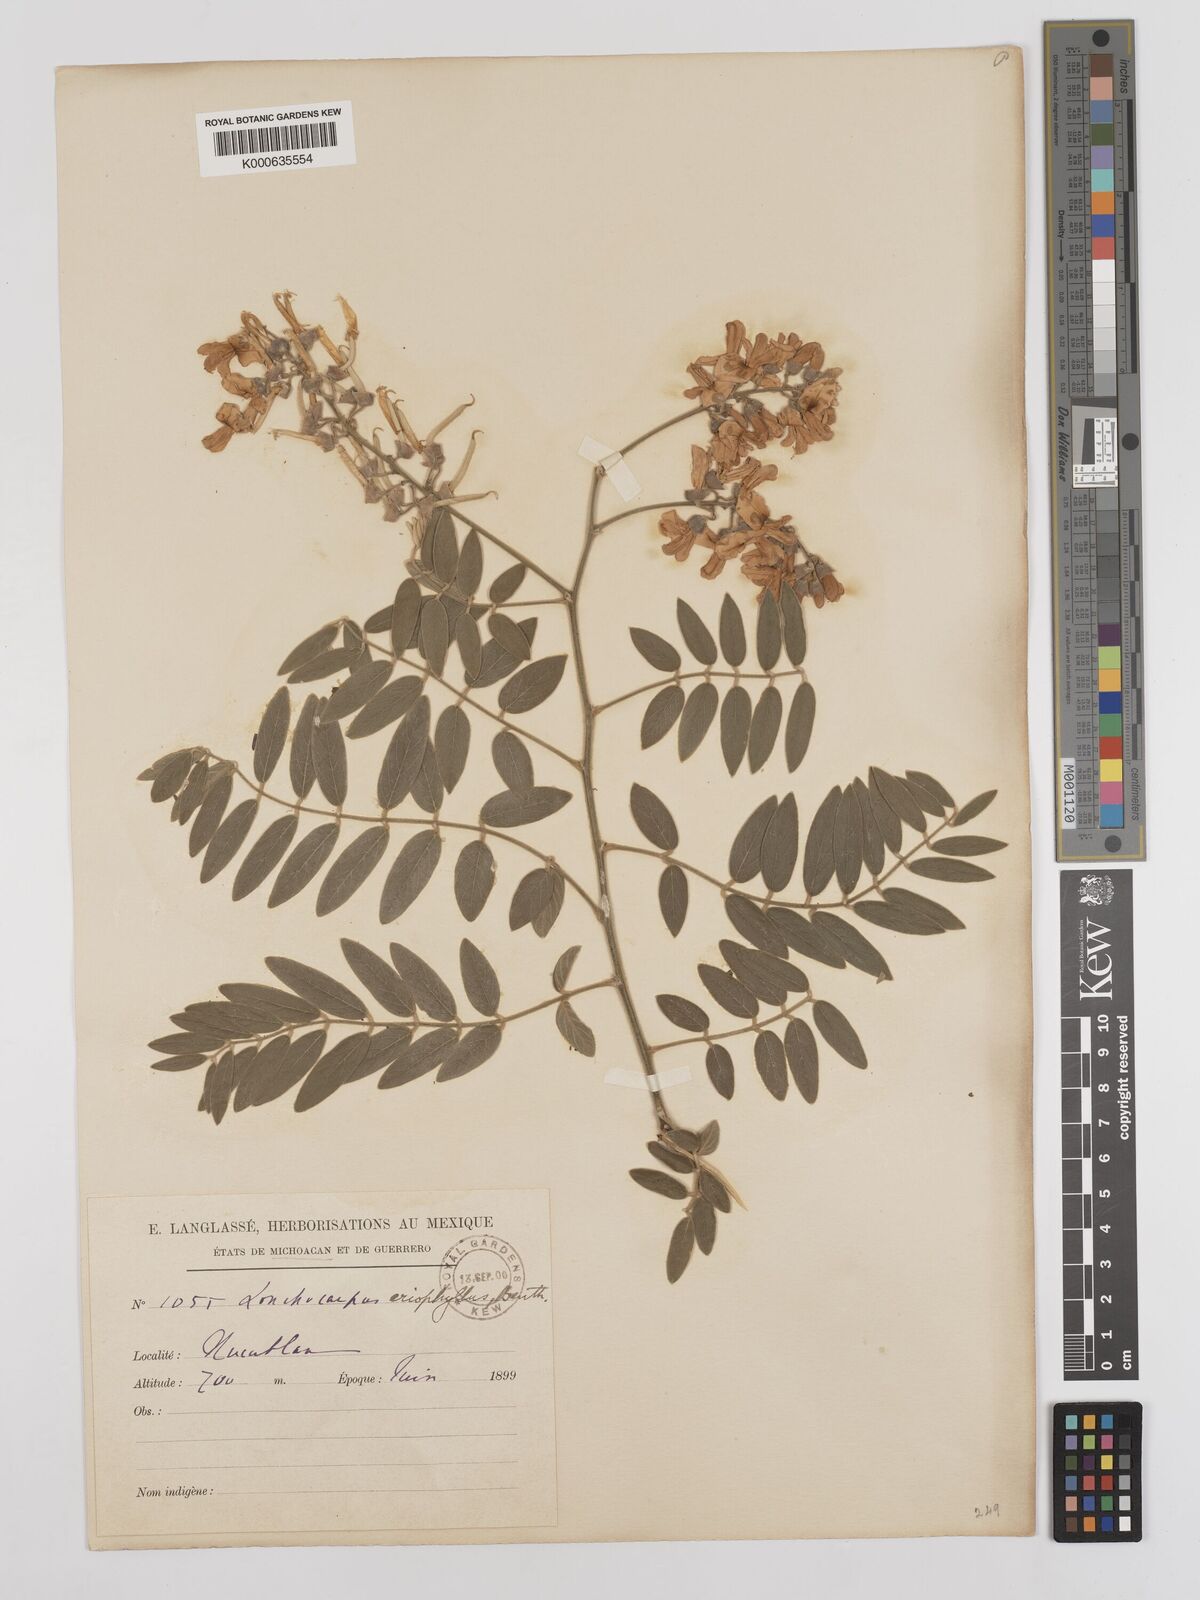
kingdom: Plantae
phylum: Tracheophyta
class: Magnoliopsida
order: Fabales
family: Fabaceae
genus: Lonchocarpus
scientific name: Lonchocarpus eriophyllus
